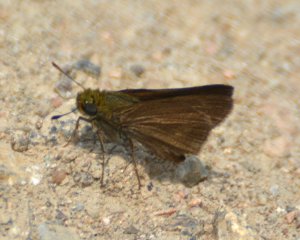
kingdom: Animalia
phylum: Arthropoda
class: Insecta
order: Lepidoptera
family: Hesperiidae
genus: Euphyes
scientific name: Euphyes vestris
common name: Dun Skipper
